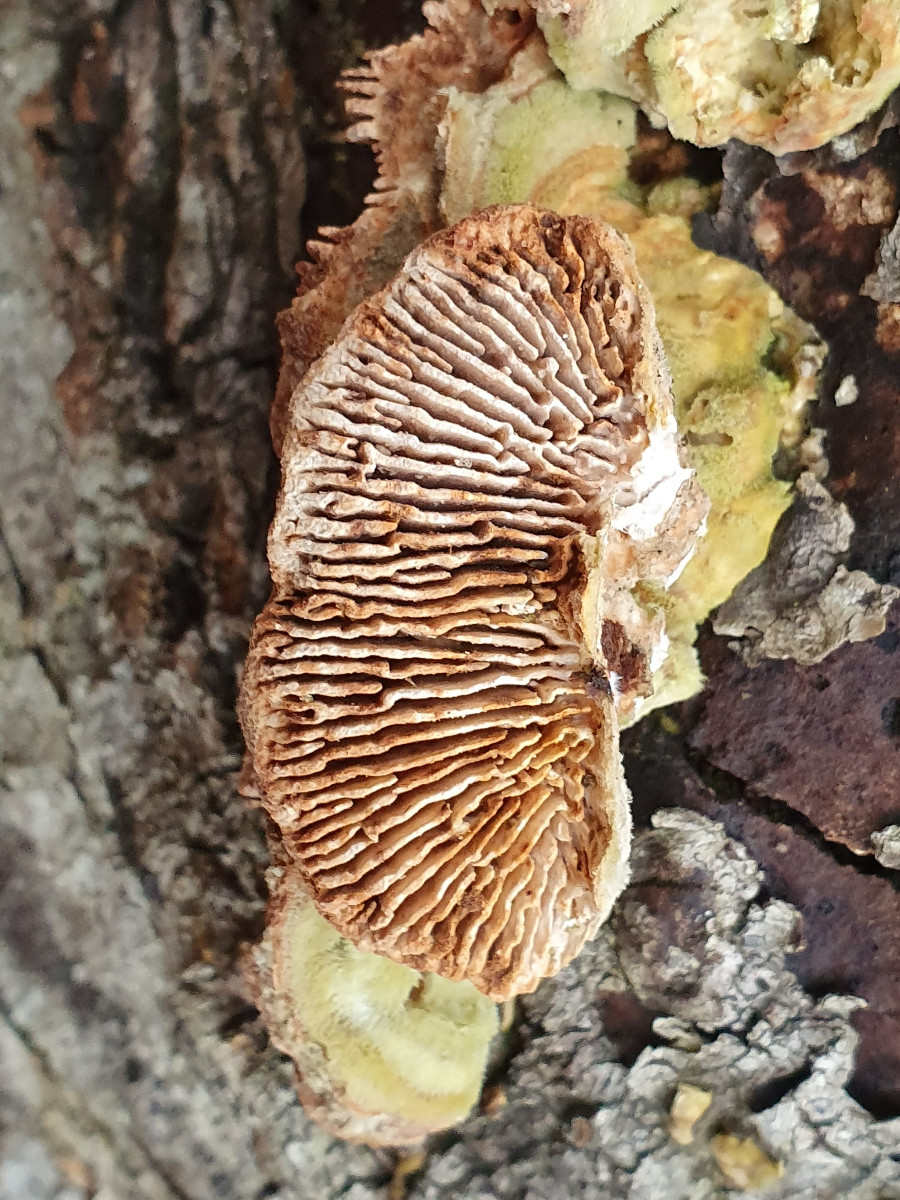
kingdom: Fungi
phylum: Basidiomycota
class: Agaricomycetes
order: Polyporales
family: Polyporaceae
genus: Lenzites
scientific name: Lenzites betulinus
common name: birke-læderporesvamp
